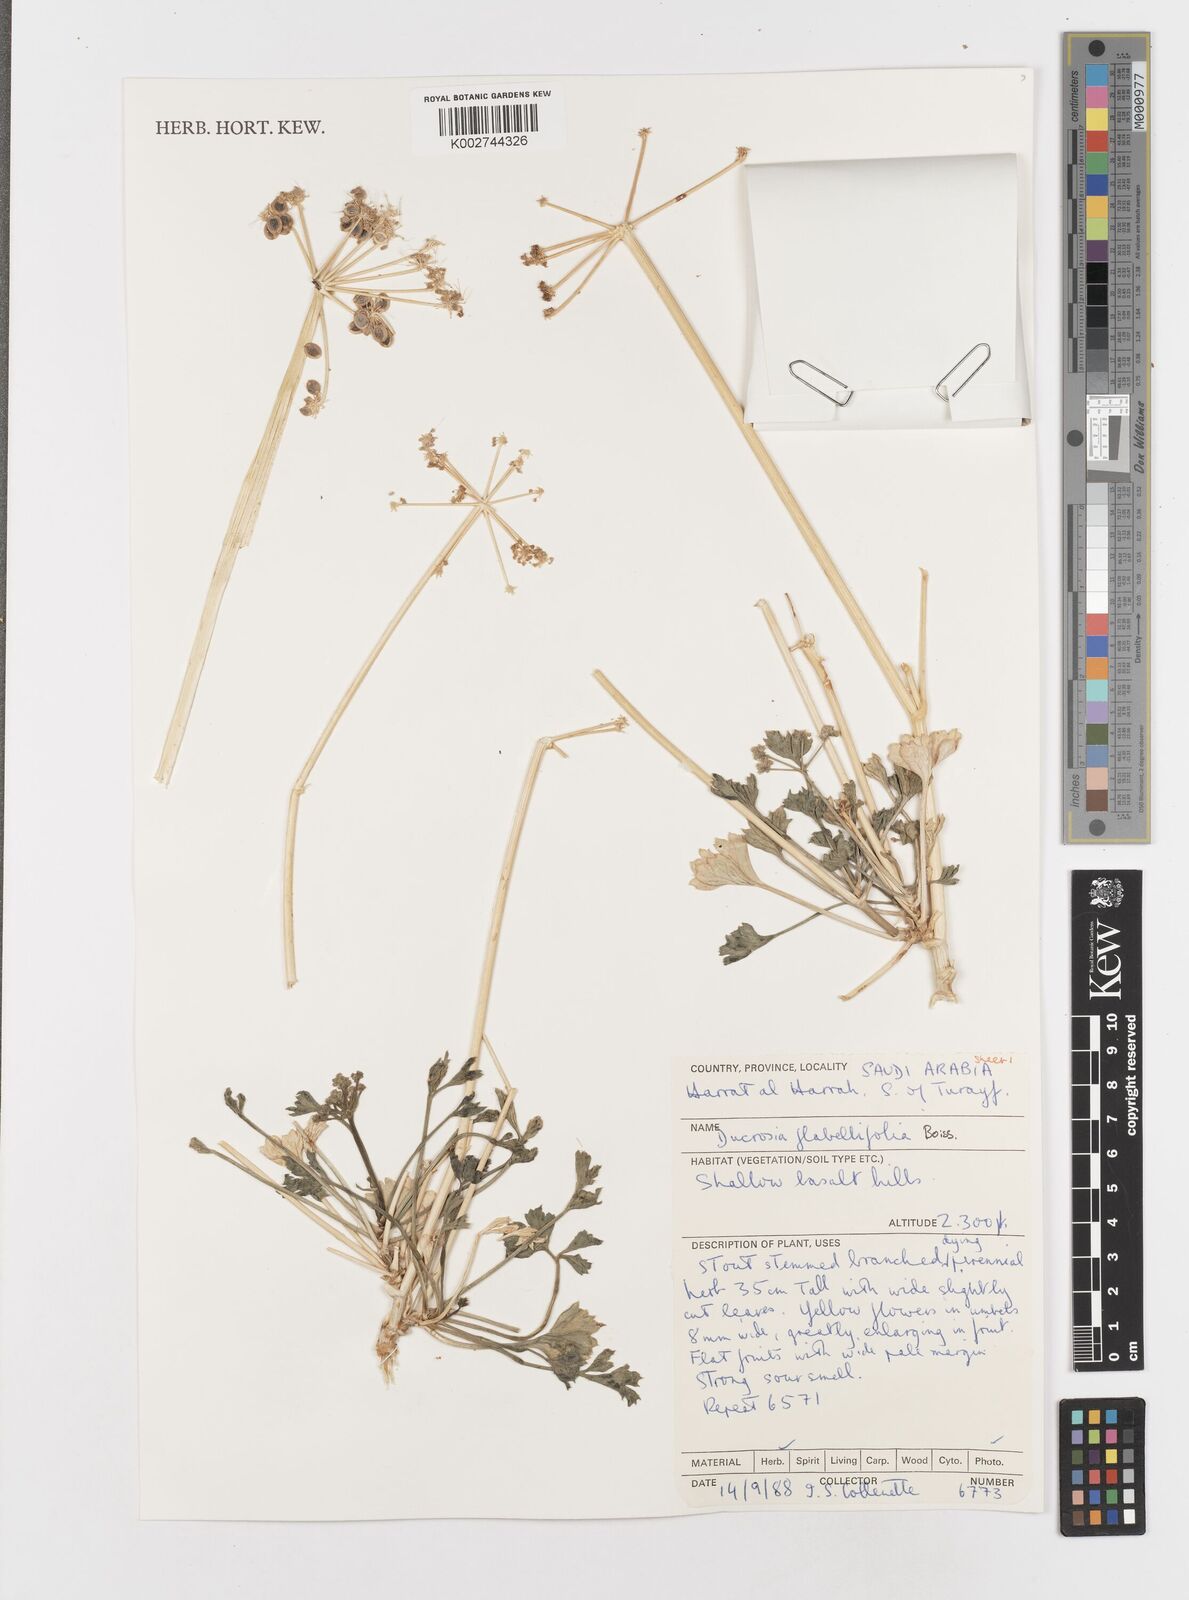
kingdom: Plantae
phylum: Tracheophyta
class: Magnoliopsida
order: Apiales
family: Apiaceae
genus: Ducrosia
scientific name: Ducrosia flabellifolia
